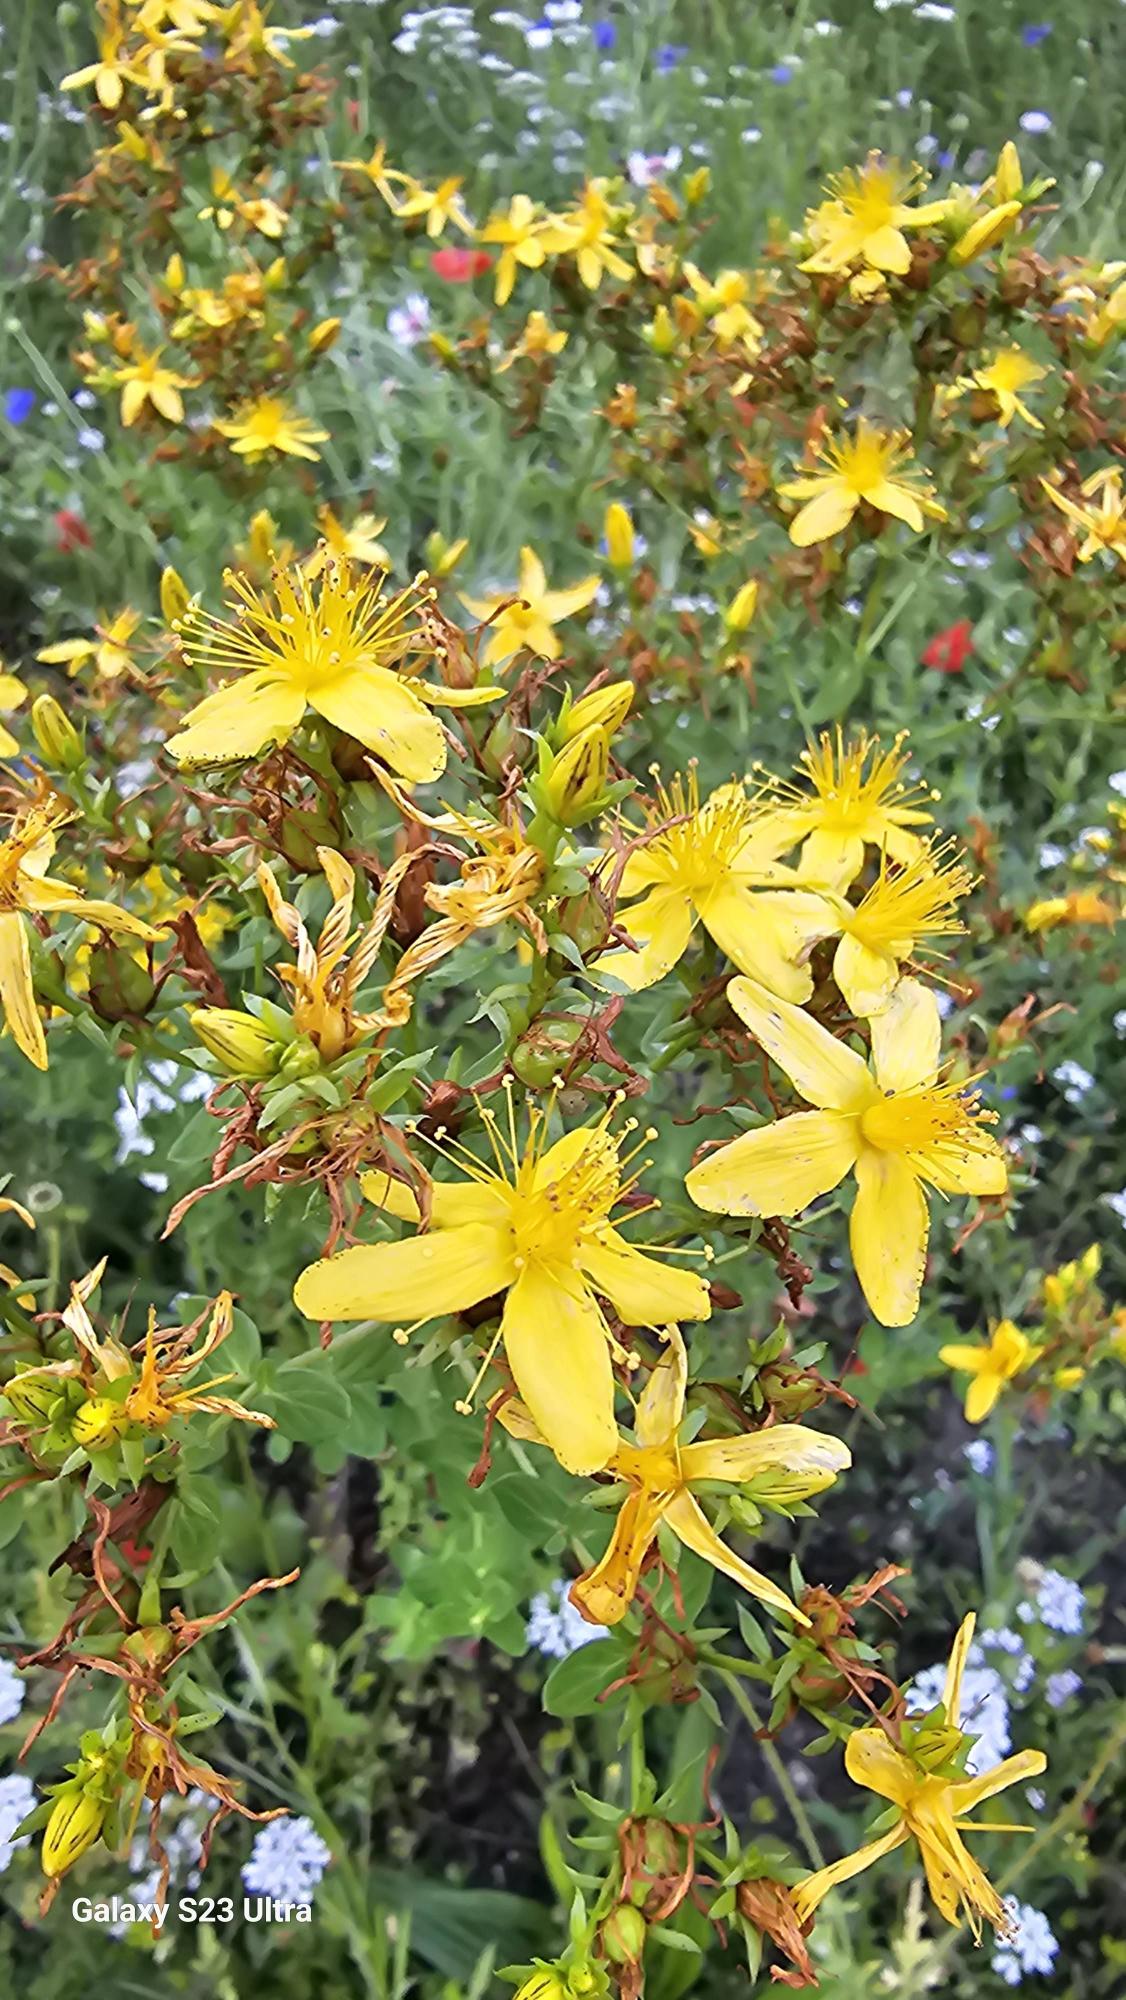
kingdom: Plantae
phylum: Tracheophyta
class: Magnoliopsida
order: Malpighiales
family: Hypericaceae
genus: Hypericum
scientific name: Hypericum perforatum
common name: Prikbladet perikon
